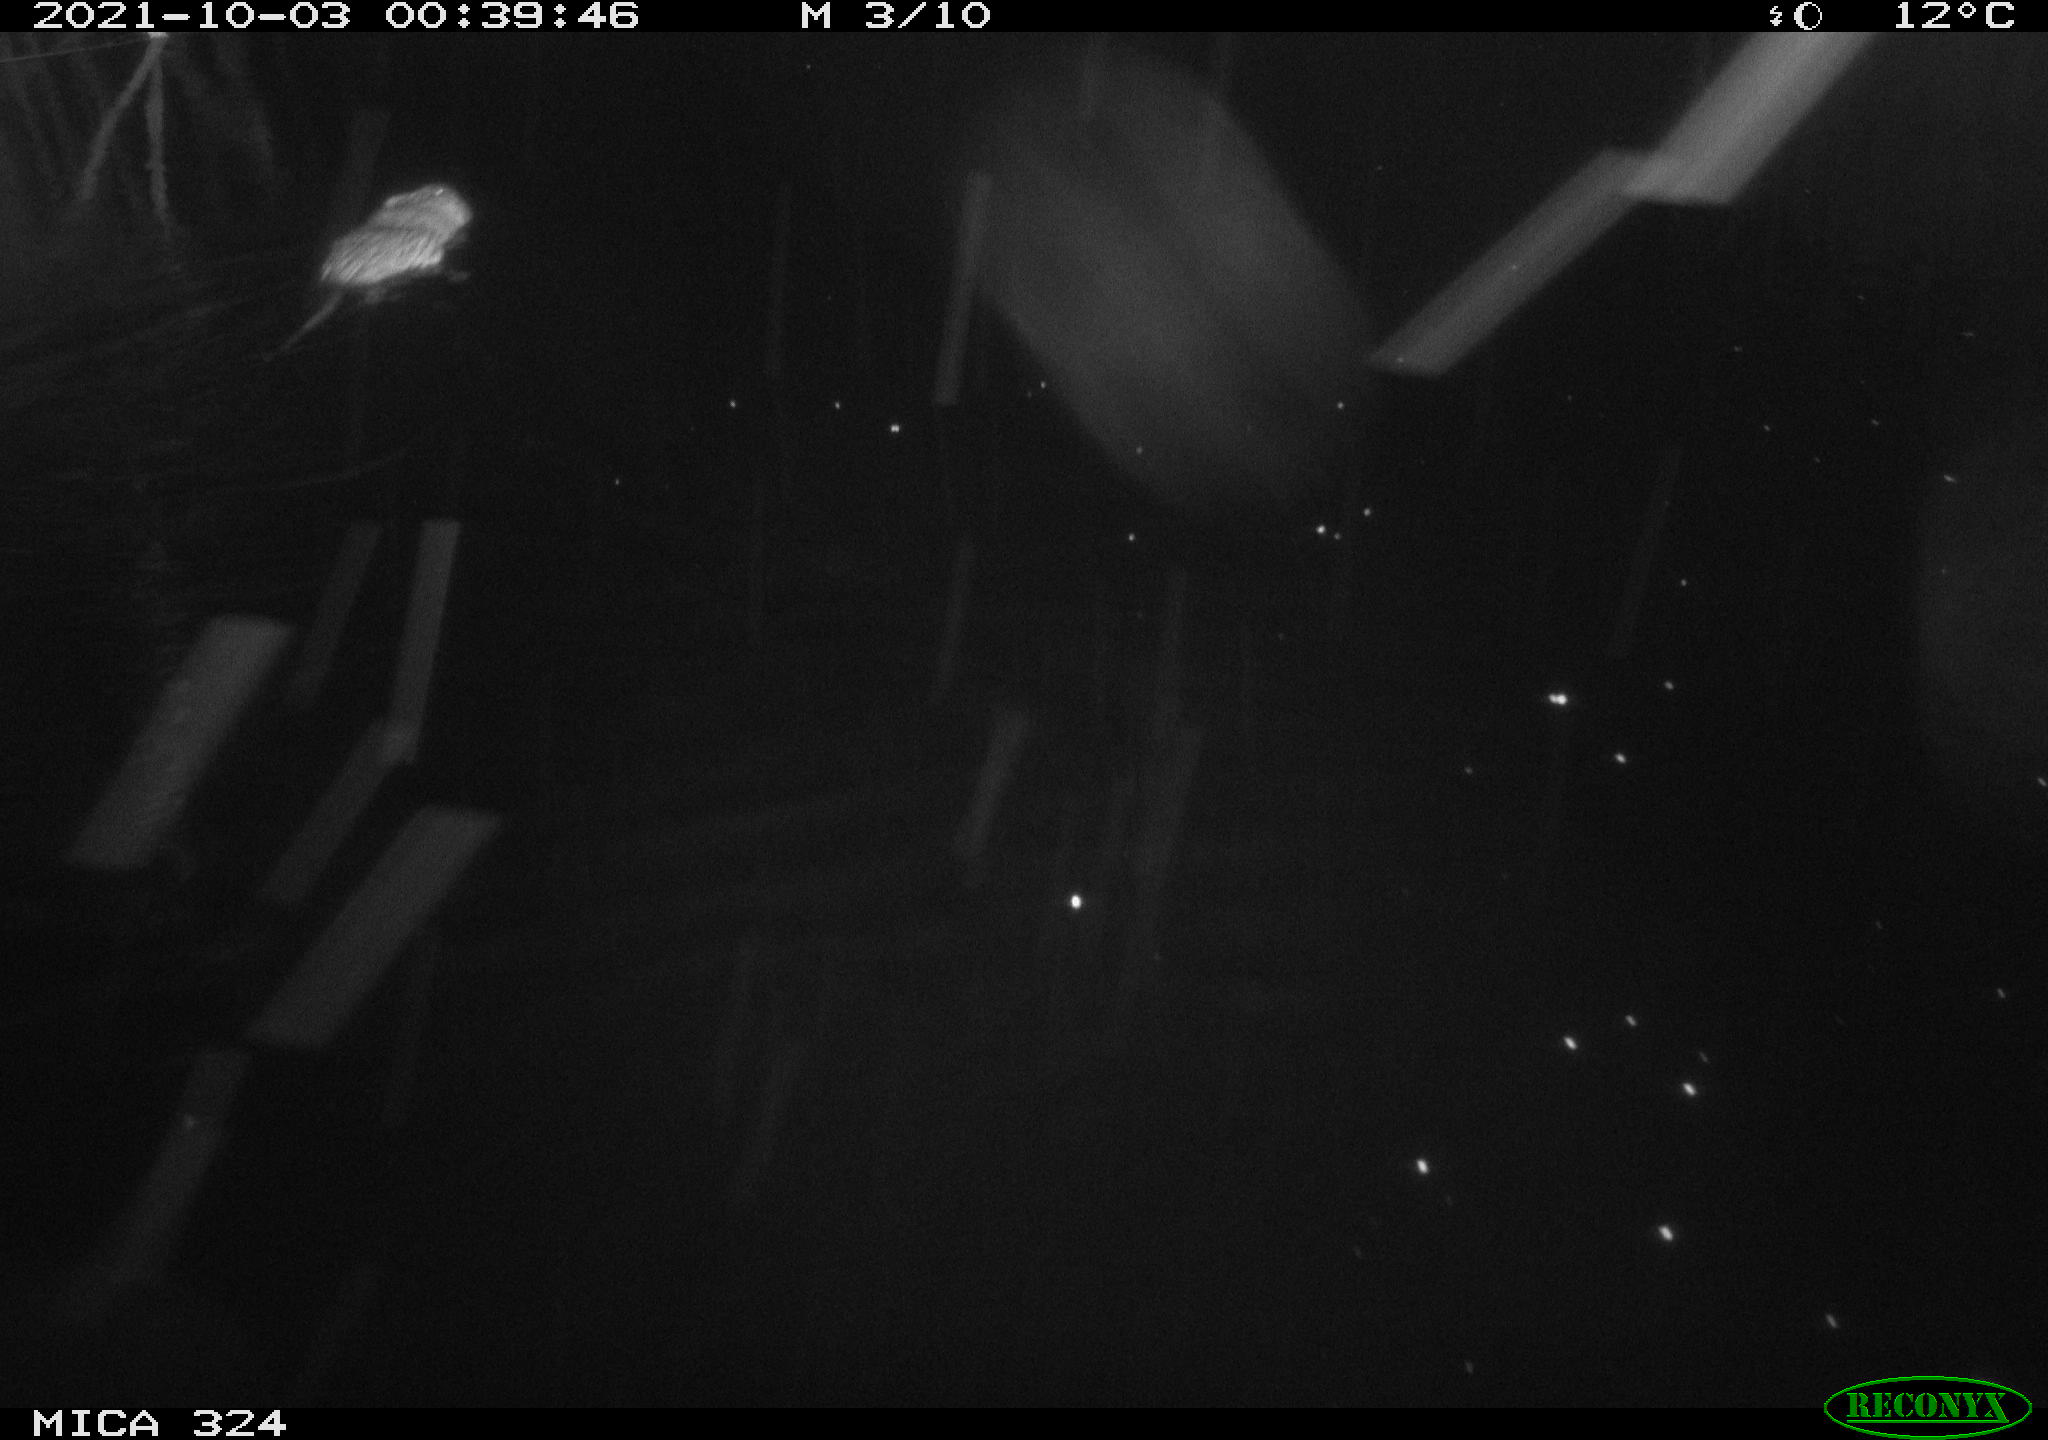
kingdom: Animalia
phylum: Chordata
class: Mammalia
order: Rodentia
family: Cricetidae
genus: Ondatra
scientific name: Ondatra zibethicus
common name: Muskrat
